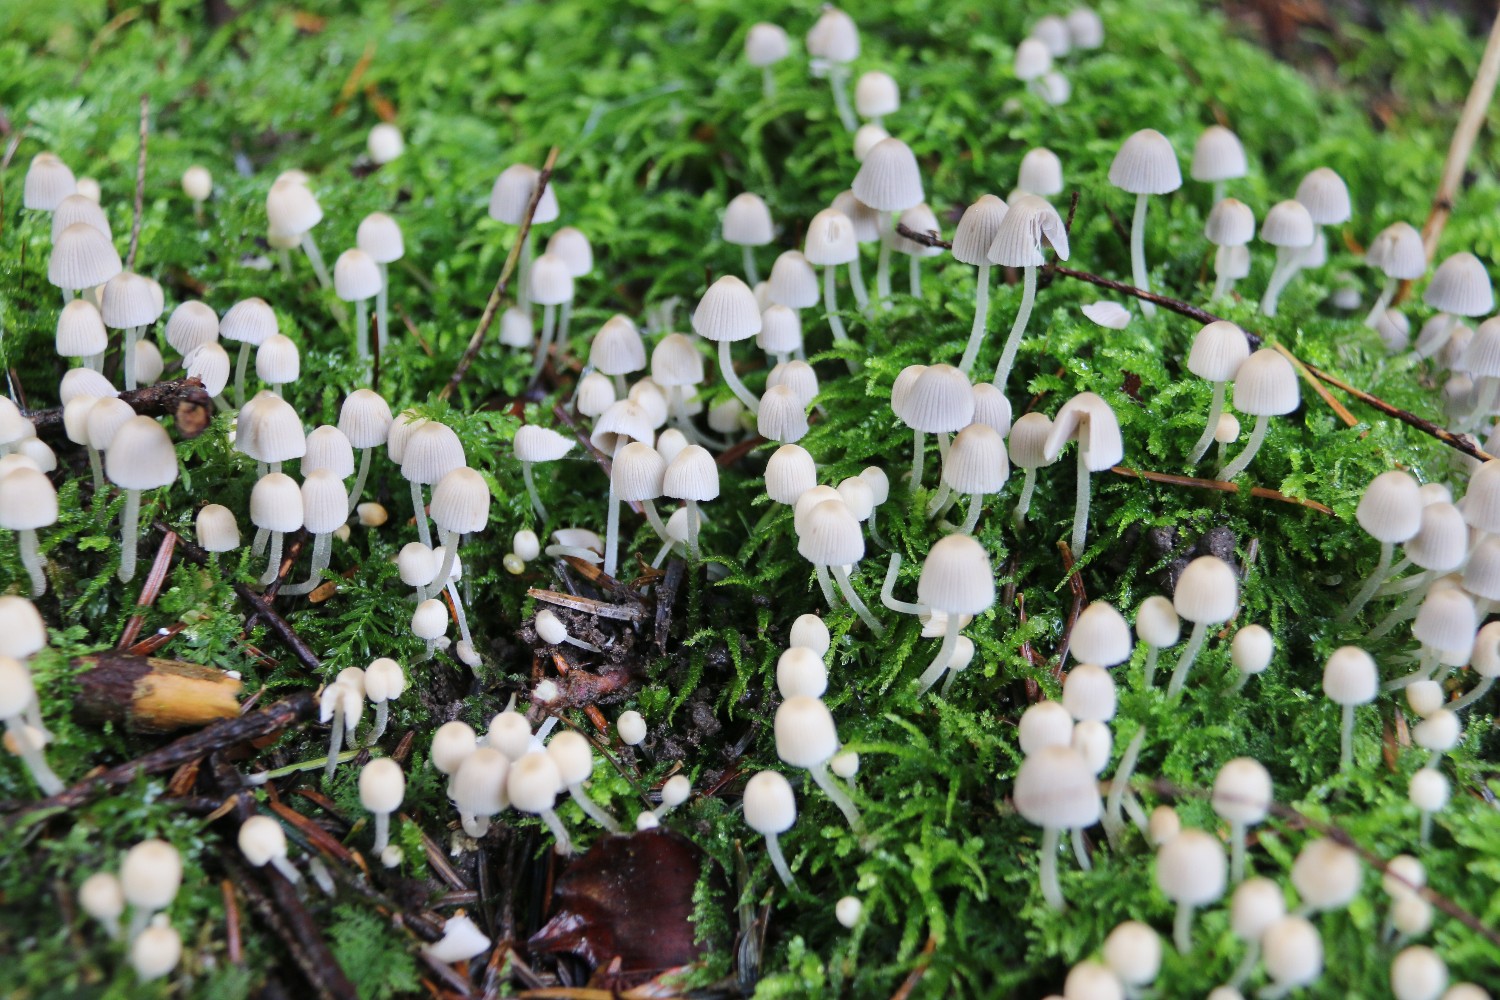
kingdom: Fungi
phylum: Basidiomycota
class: Agaricomycetes
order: Agaricales
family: Psathyrellaceae
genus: Coprinellus
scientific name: Coprinellus disseminatus
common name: bredsået blækhat
